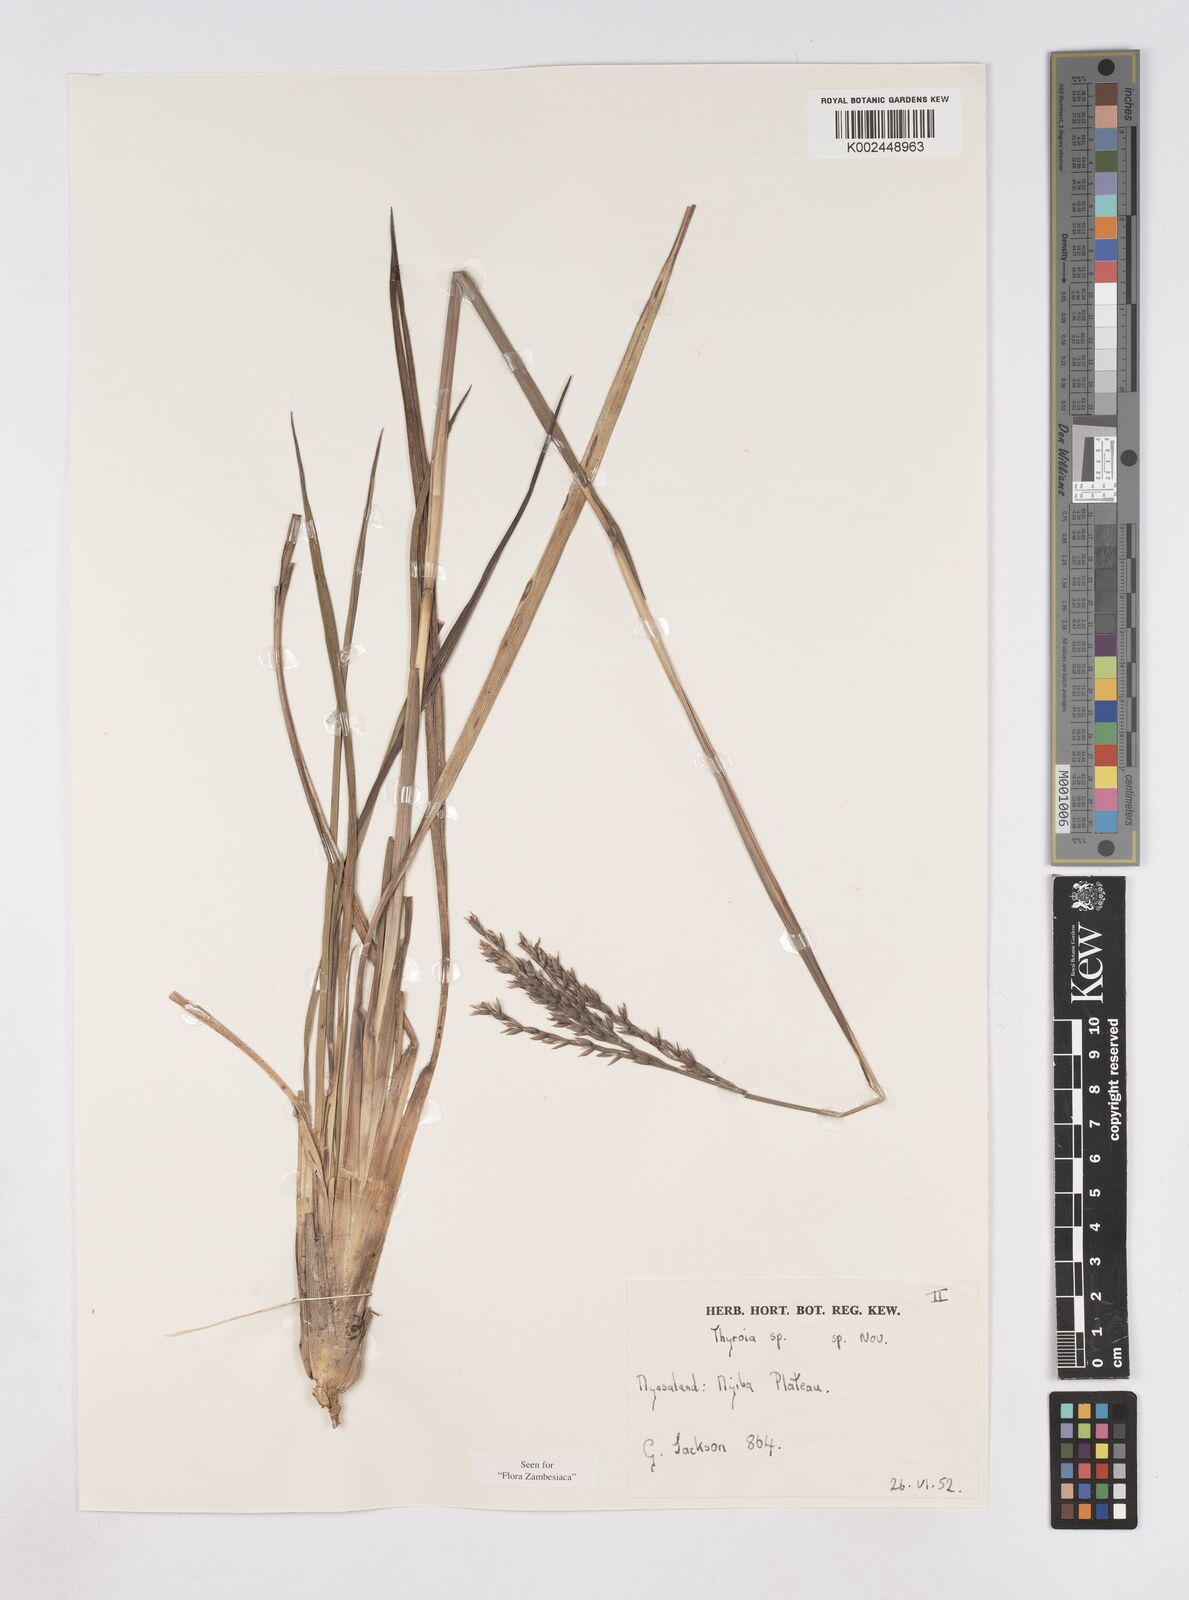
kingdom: Plantae
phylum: Tracheophyta
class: Liliopsida
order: Poales
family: Poaceae
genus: Thyrsia
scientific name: Thyrsia schliebenii
